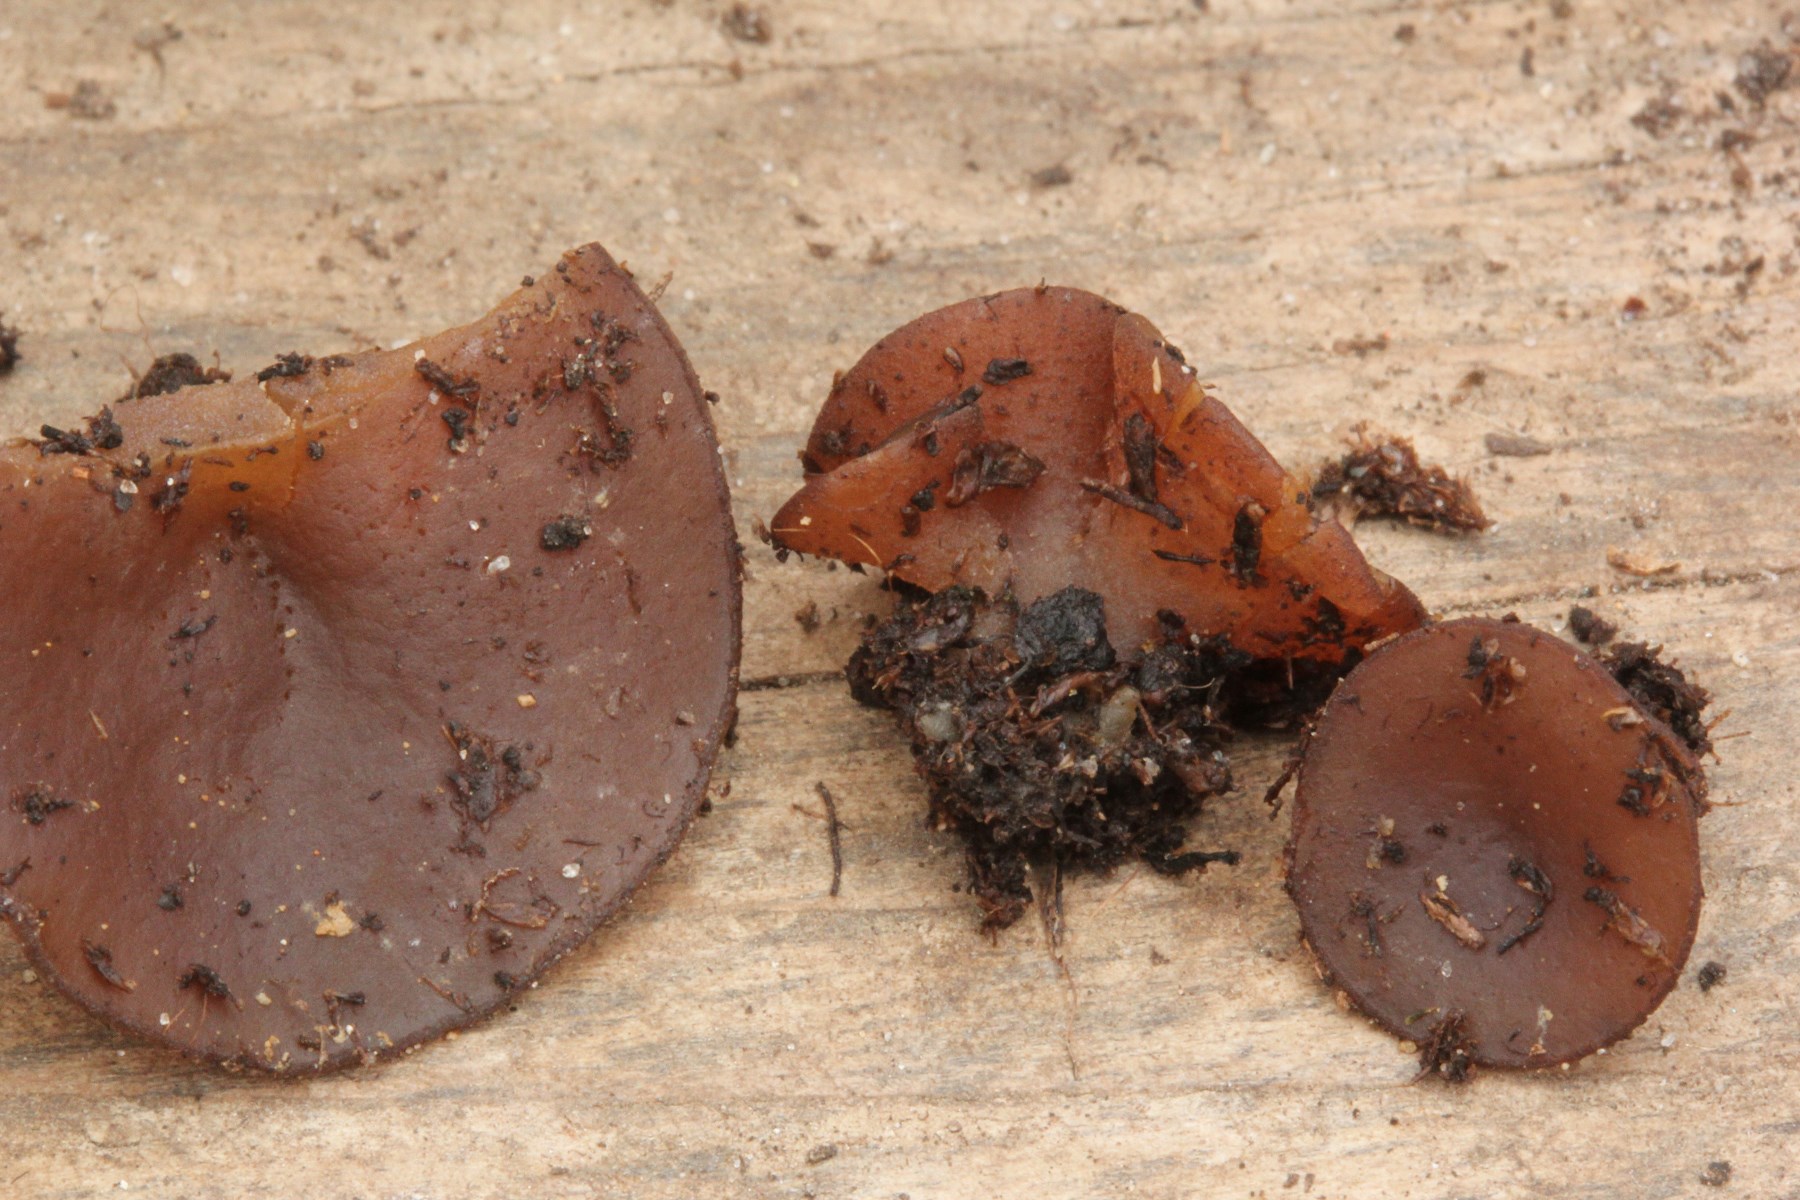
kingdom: Fungi
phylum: Ascomycota
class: Pezizomycetes
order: Pezizales
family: Pezizaceae
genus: Peziza
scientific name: Peziza
